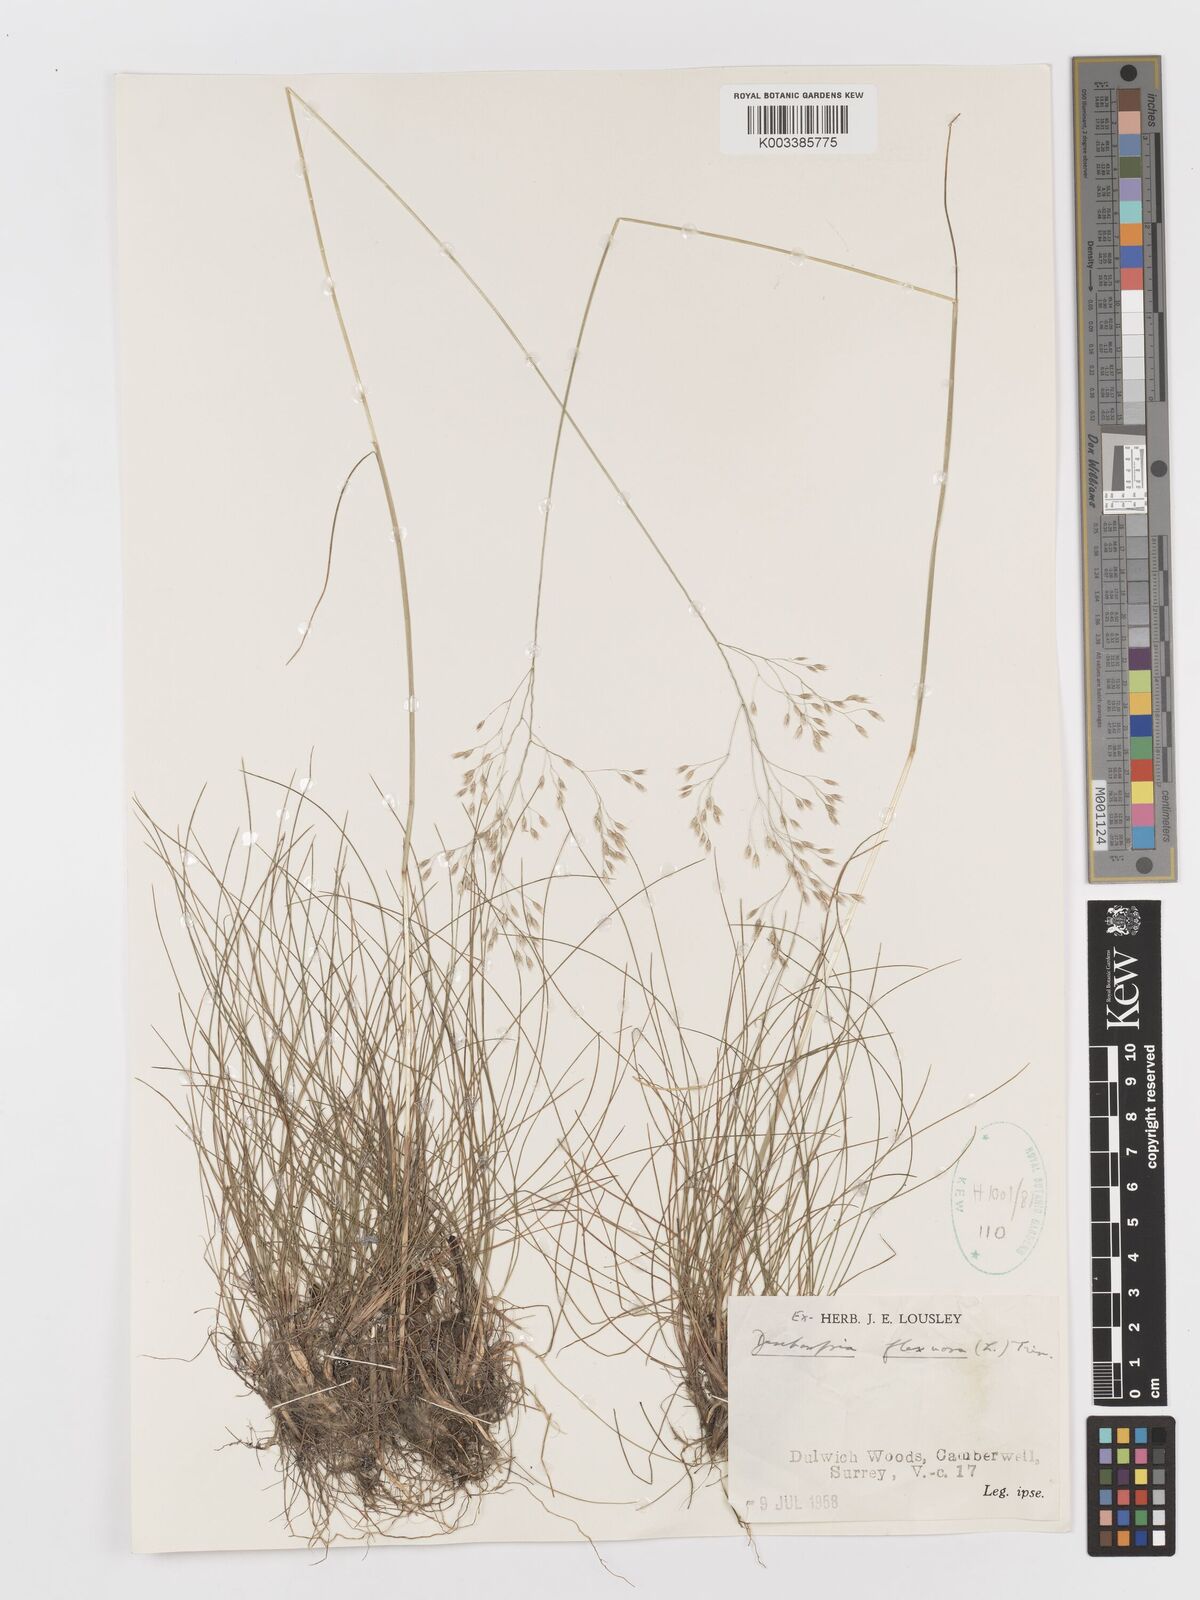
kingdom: Plantae
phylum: Tracheophyta
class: Liliopsida
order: Poales
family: Poaceae
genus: Avenella
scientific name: Avenella flexuosa
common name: Wavy hairgrass
